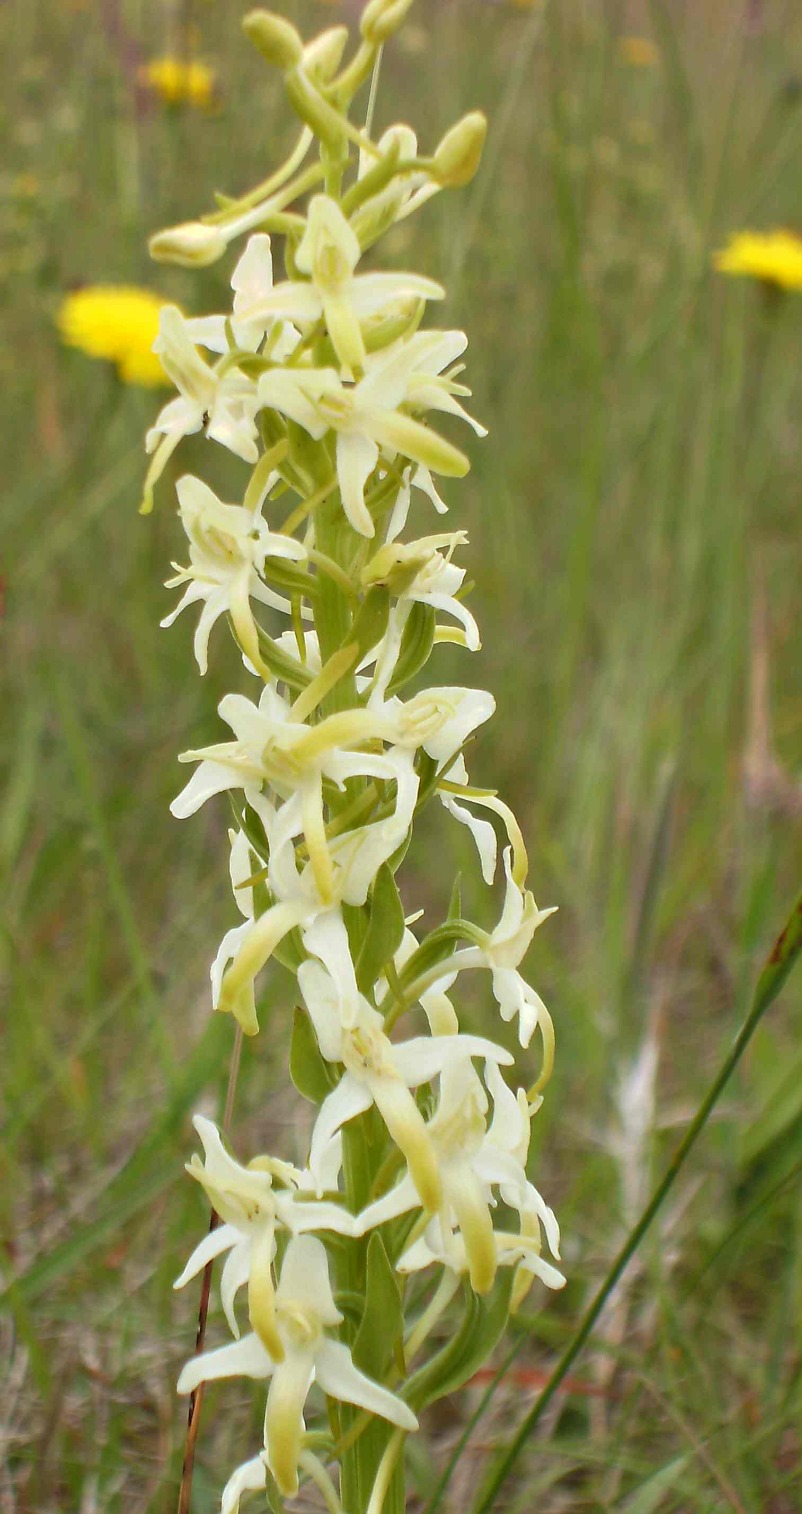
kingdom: Plantae
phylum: Tracheophyta
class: Liliopsida
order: Asparagales
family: Orchidaceae
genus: Platanthera
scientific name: Platanthera bifolia
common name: Bakke-gøgelilje
